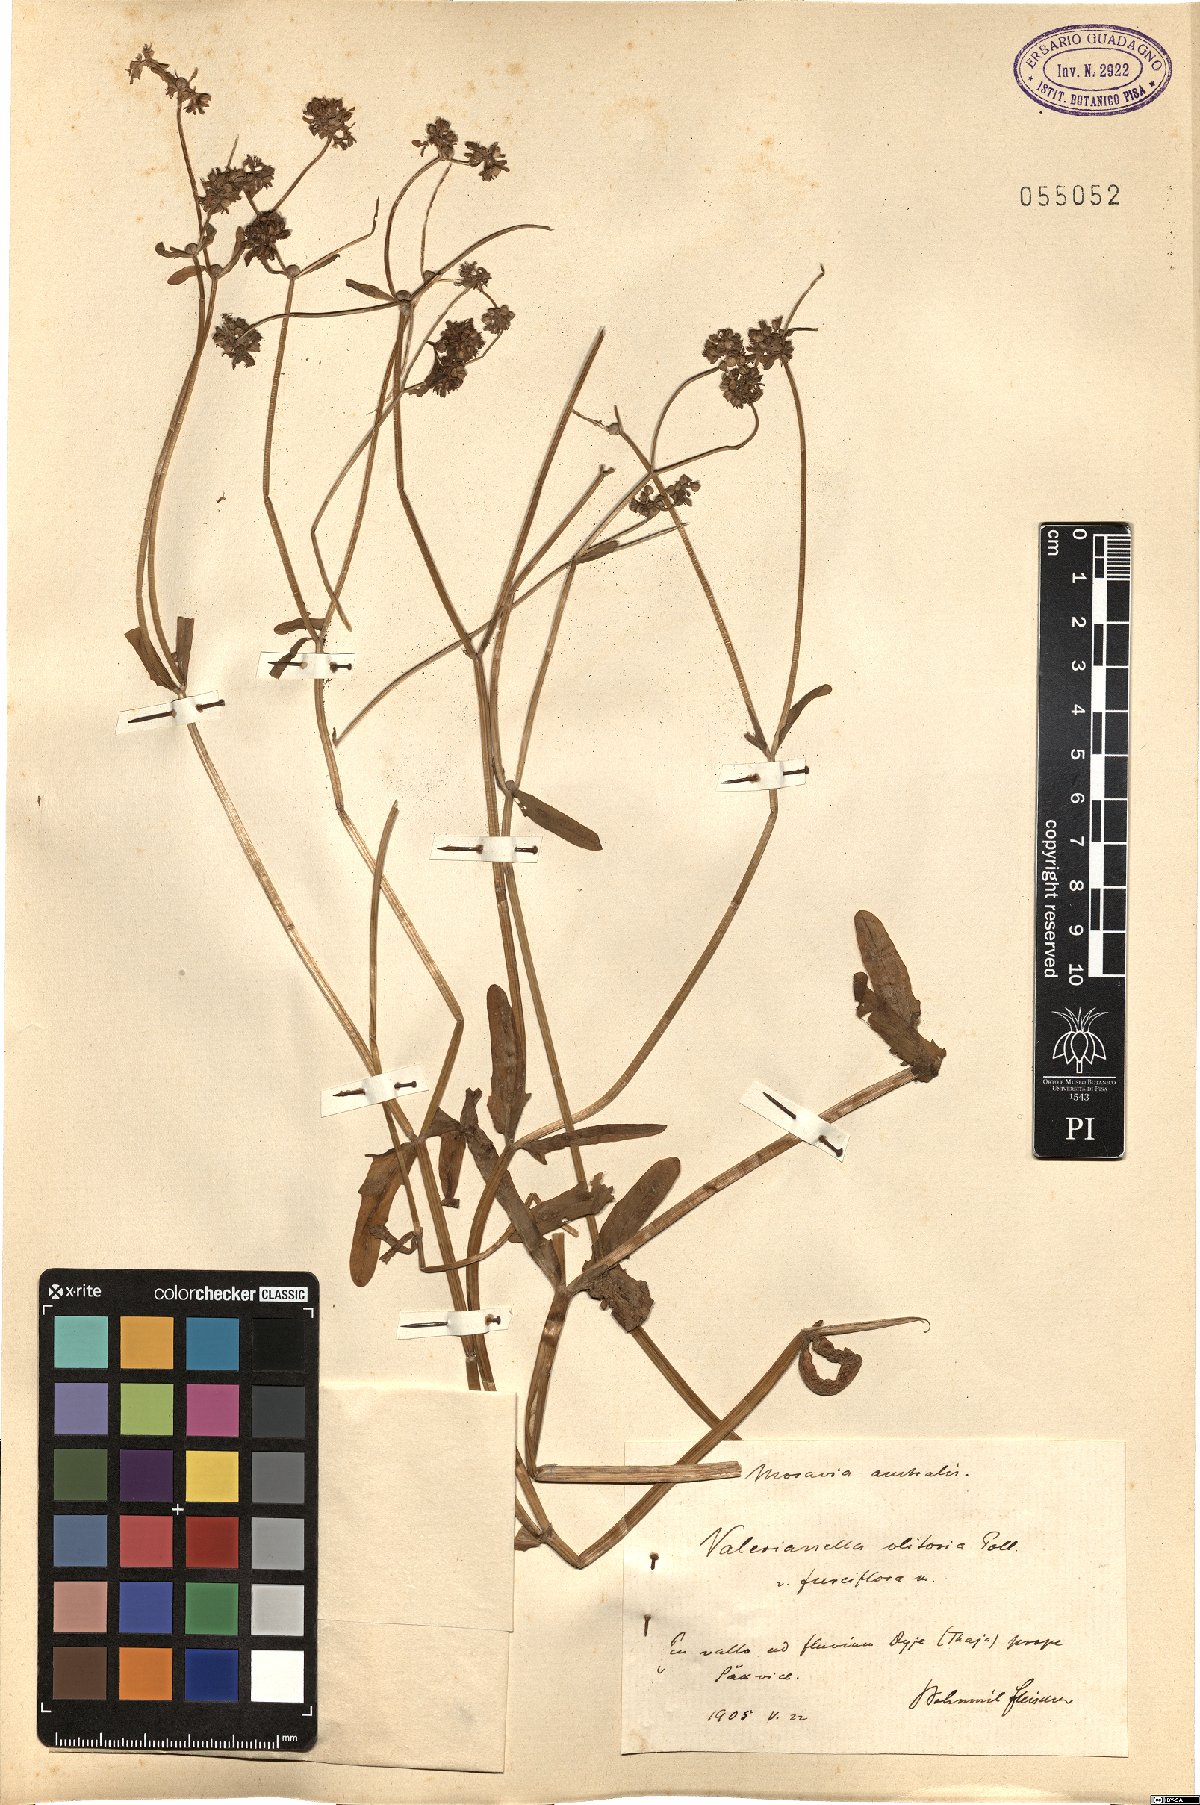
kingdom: Plantae
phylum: Tracheophyta
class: Magnoliopsida
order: Dipsacales
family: Caprifoliaceae
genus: Valerianella
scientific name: Valerianella locusta
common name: Common cornsalad
